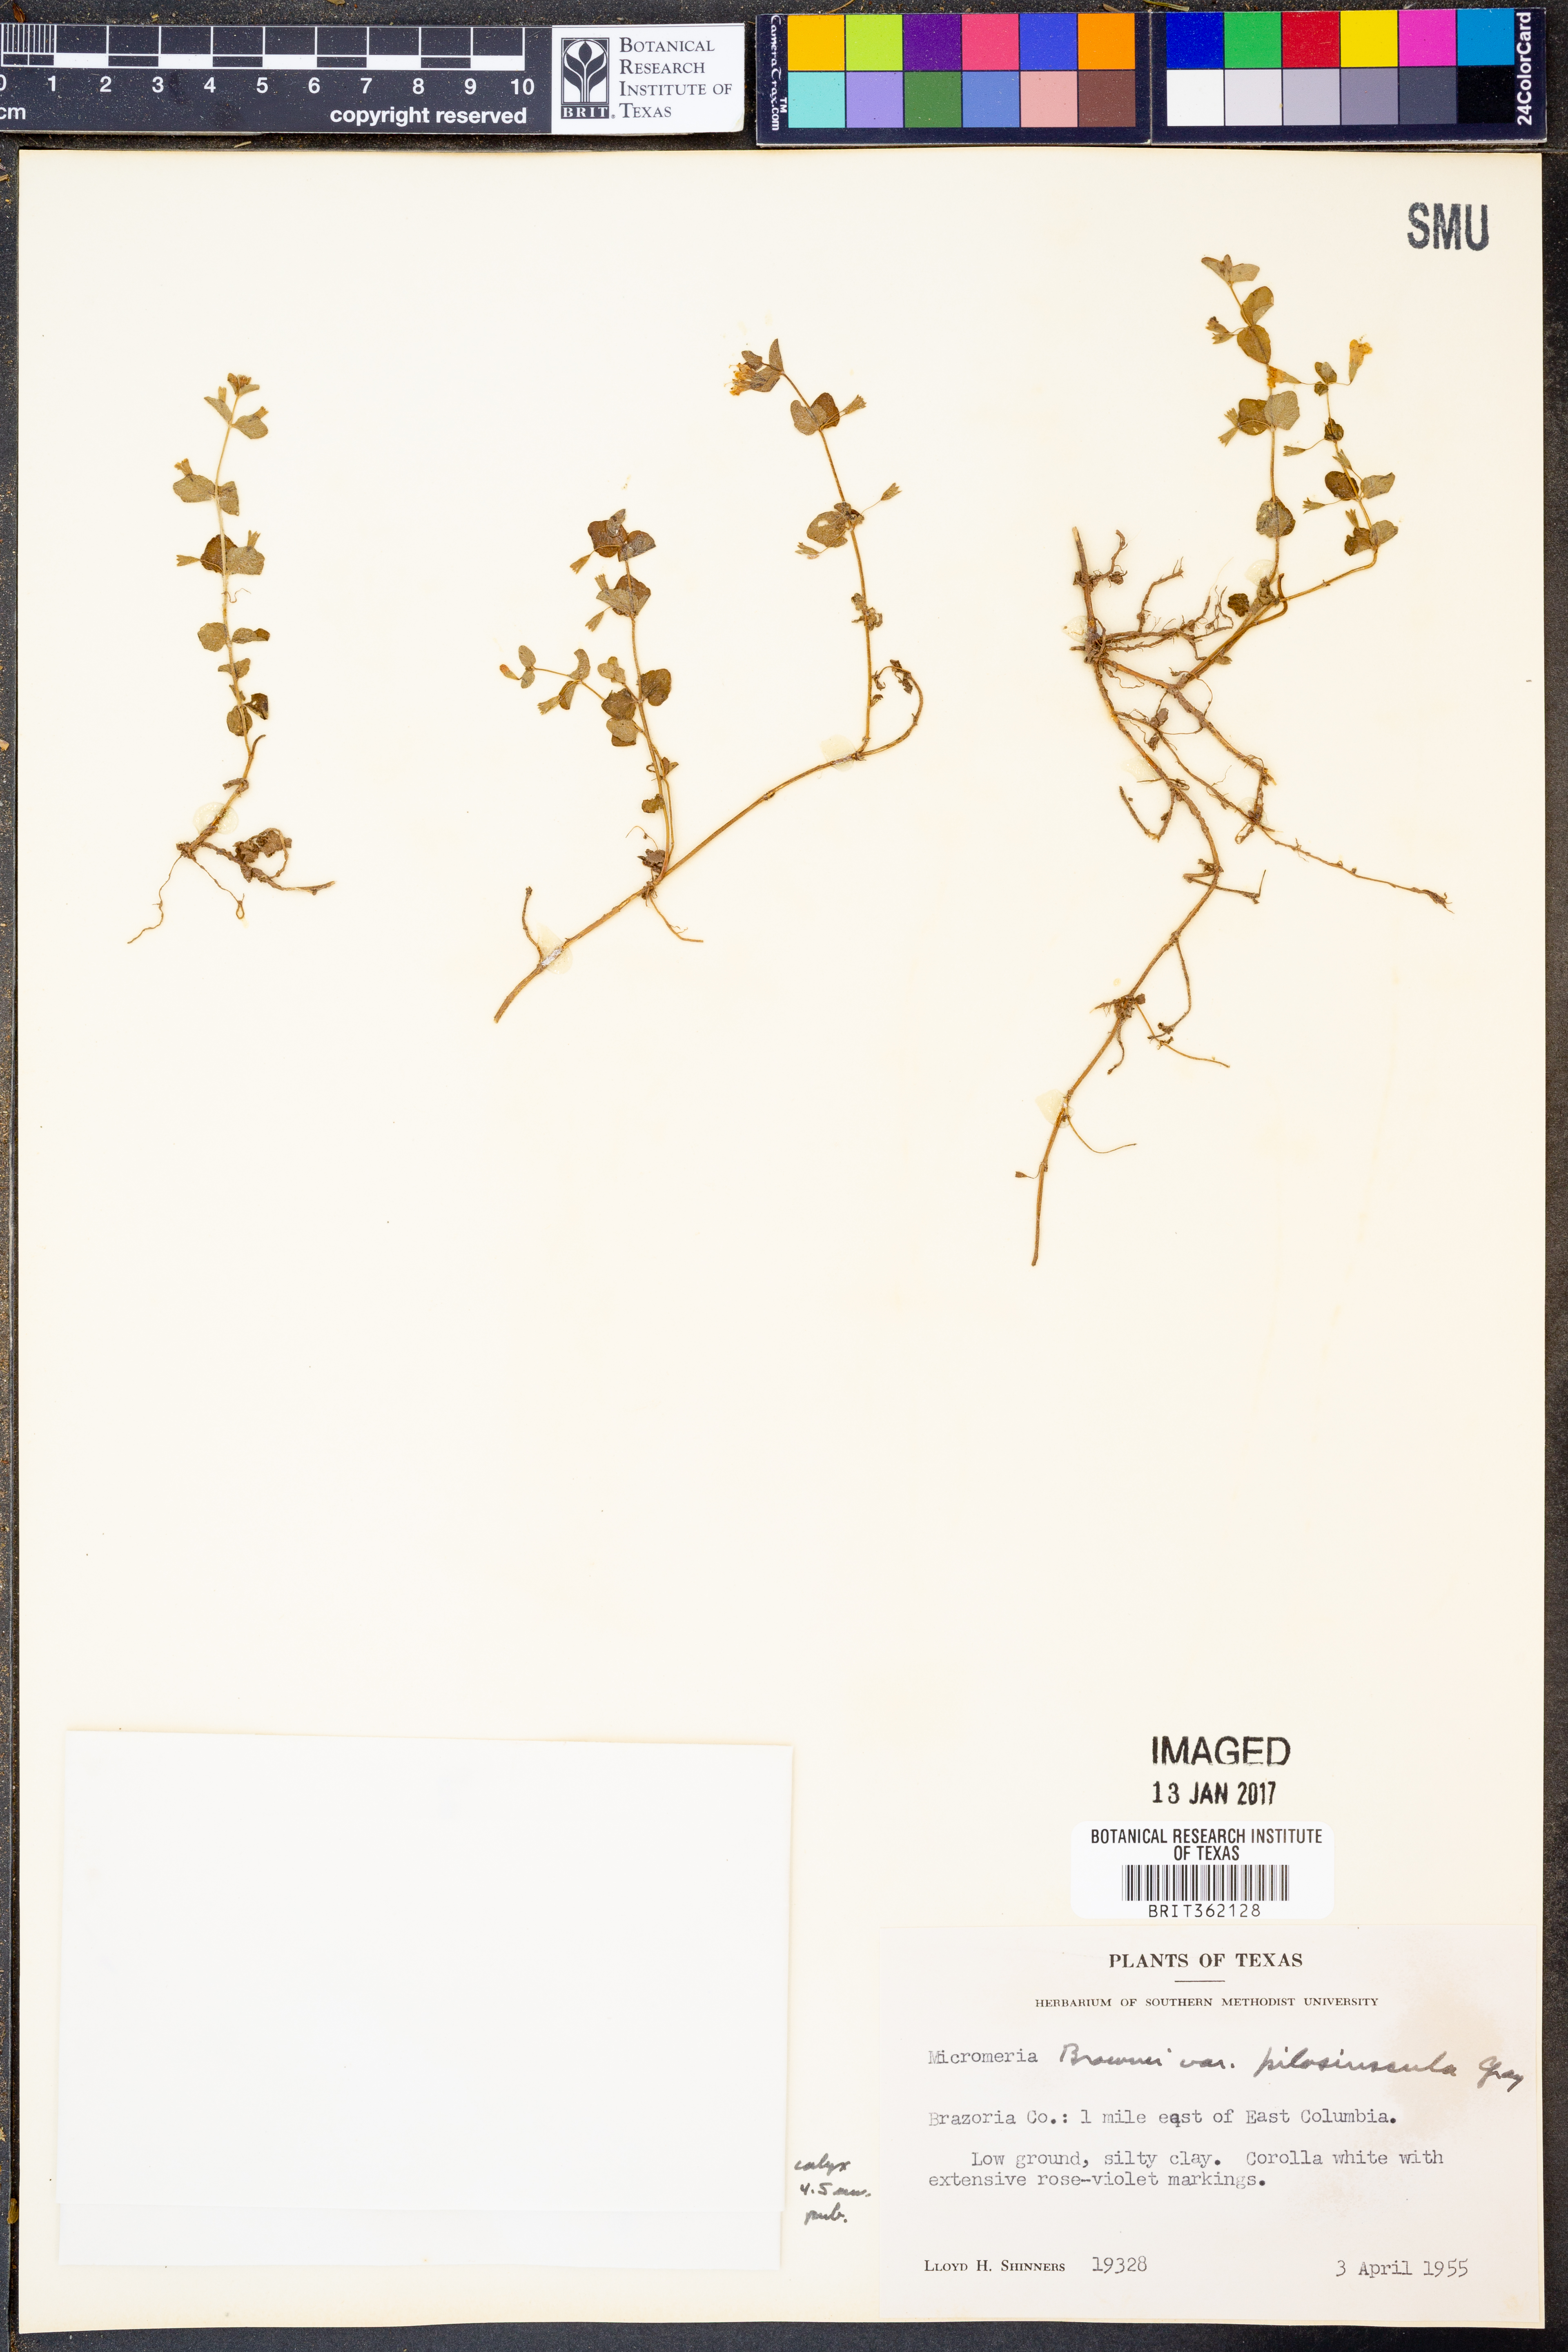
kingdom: Plantae
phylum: Tracheophyta
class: Magnoliopsida
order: Lamiales
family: Lamiaceae
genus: Clinopodium
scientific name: Clinopodium brownei
